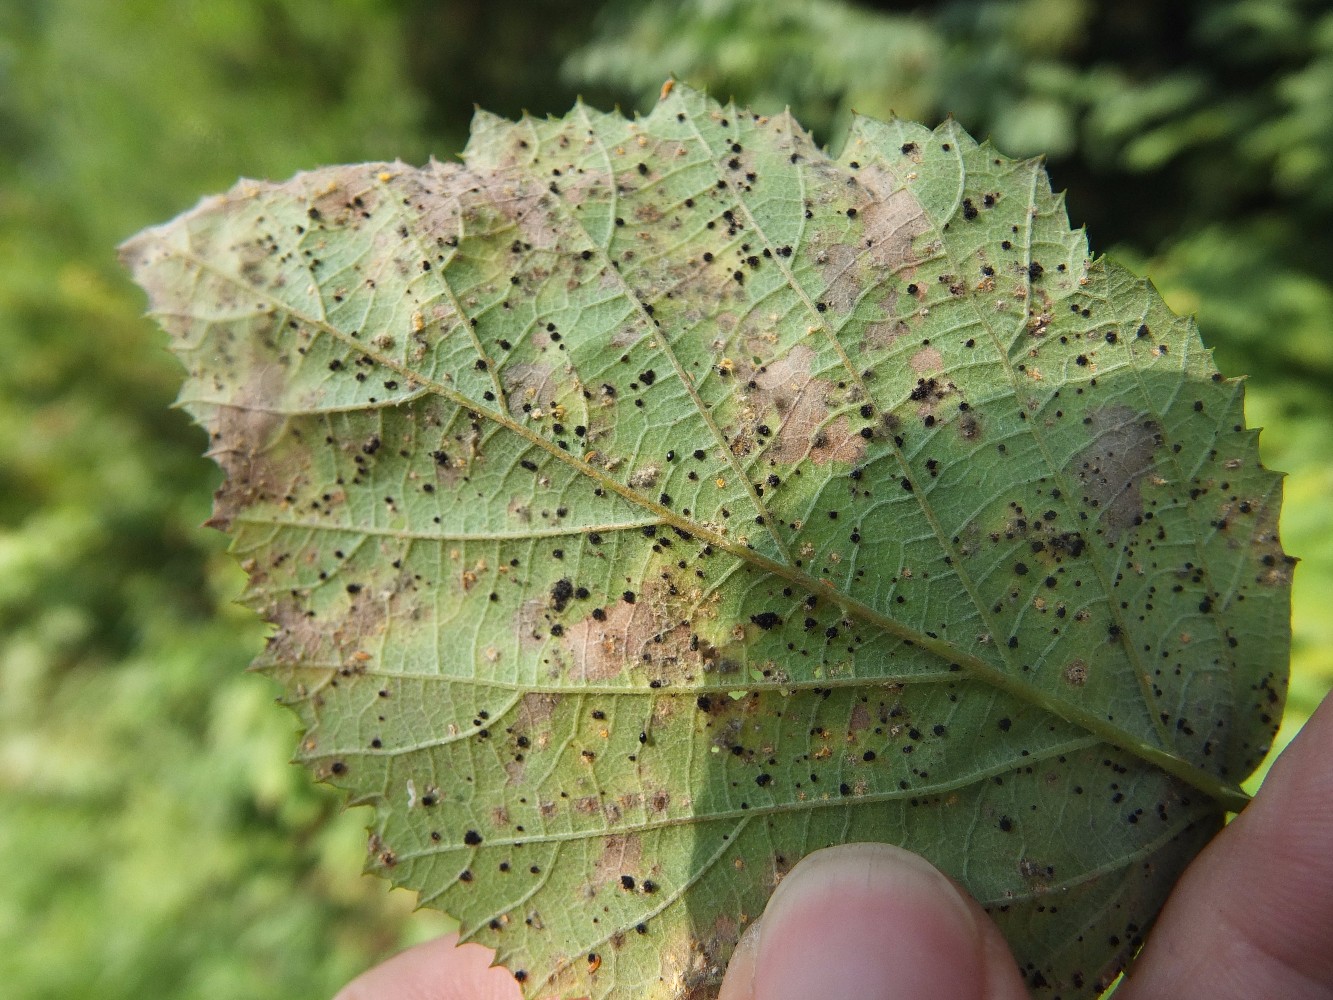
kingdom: Fungi
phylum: Basidiomycota
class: Pucciniomycetes
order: Pucciniales
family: Phragmidiaceae
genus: Phragmidium
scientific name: Phragmidium violaceum
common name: violet flercellerust
